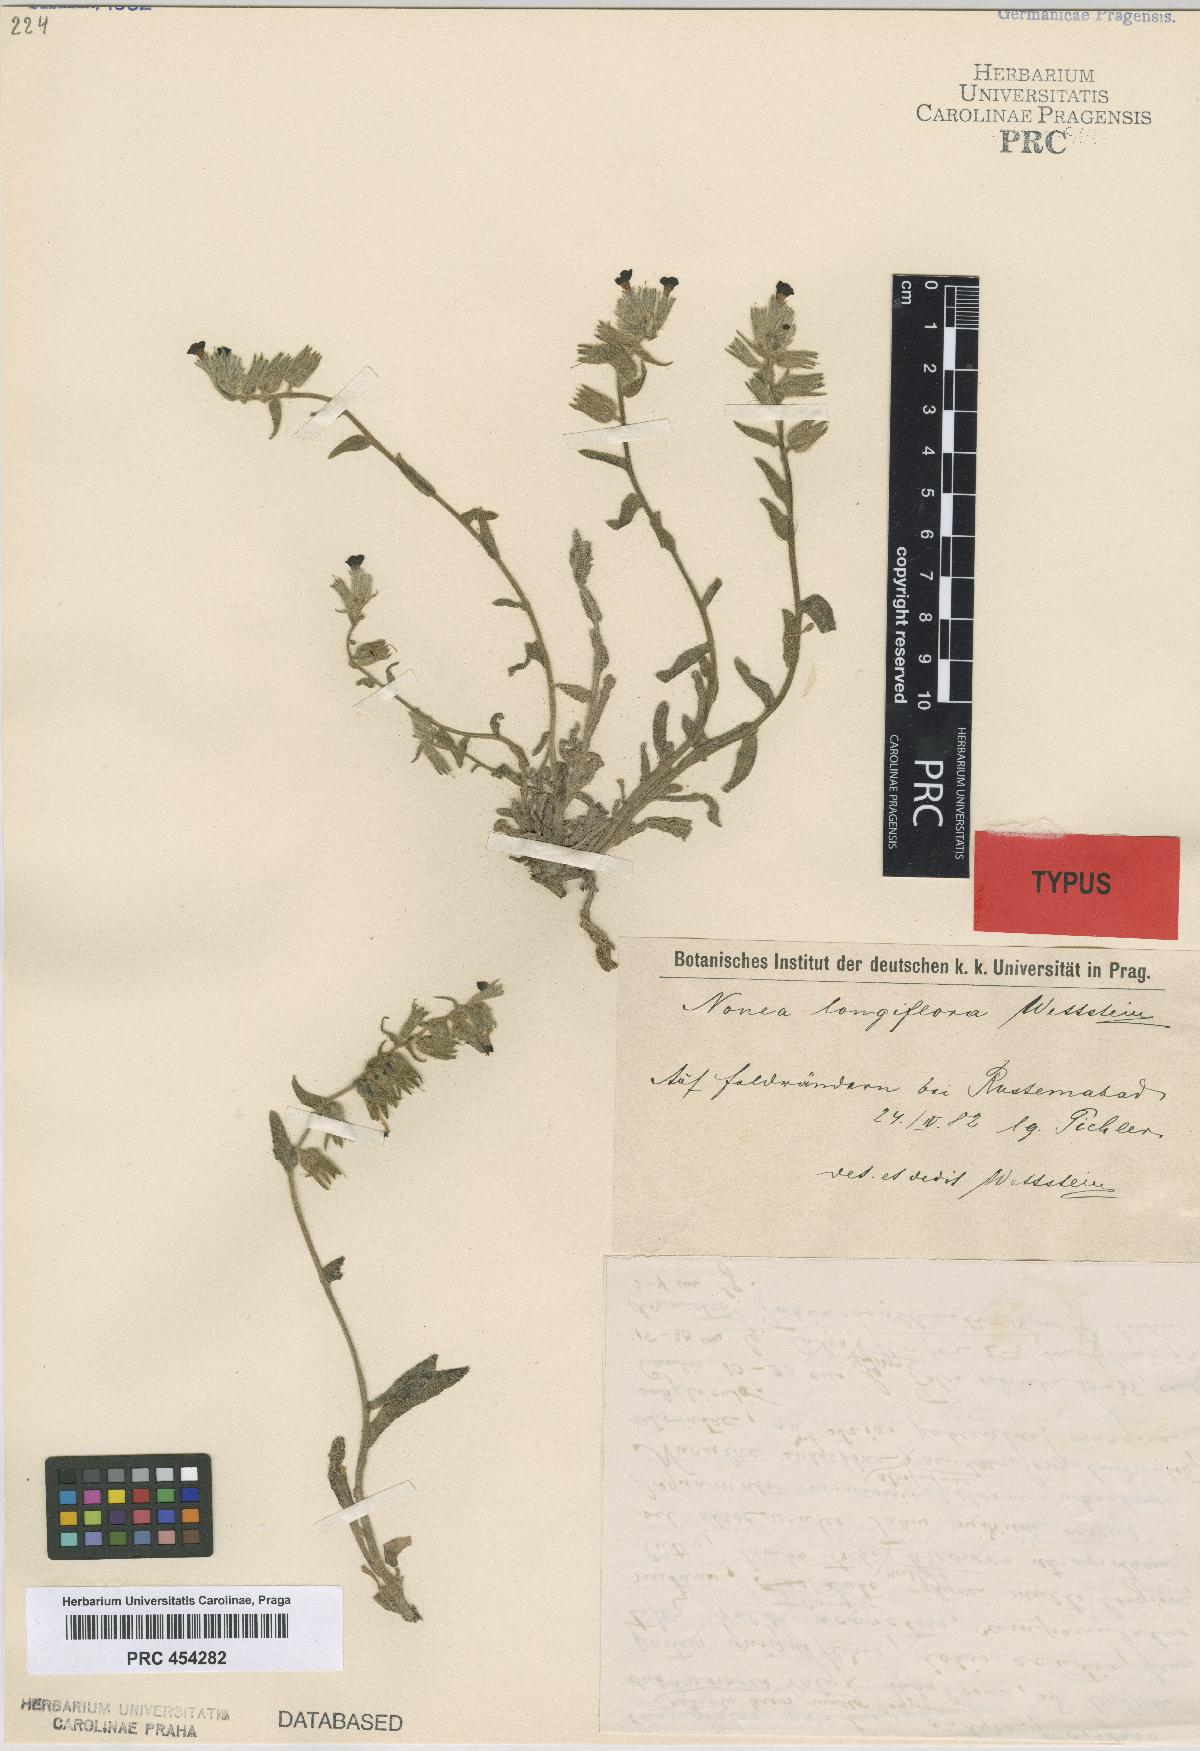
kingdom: Plantae
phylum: Tracheophyta
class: Magnoliopsida
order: Boraginales
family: Boraginaceae
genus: Nonea
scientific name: Nonea longiflora
